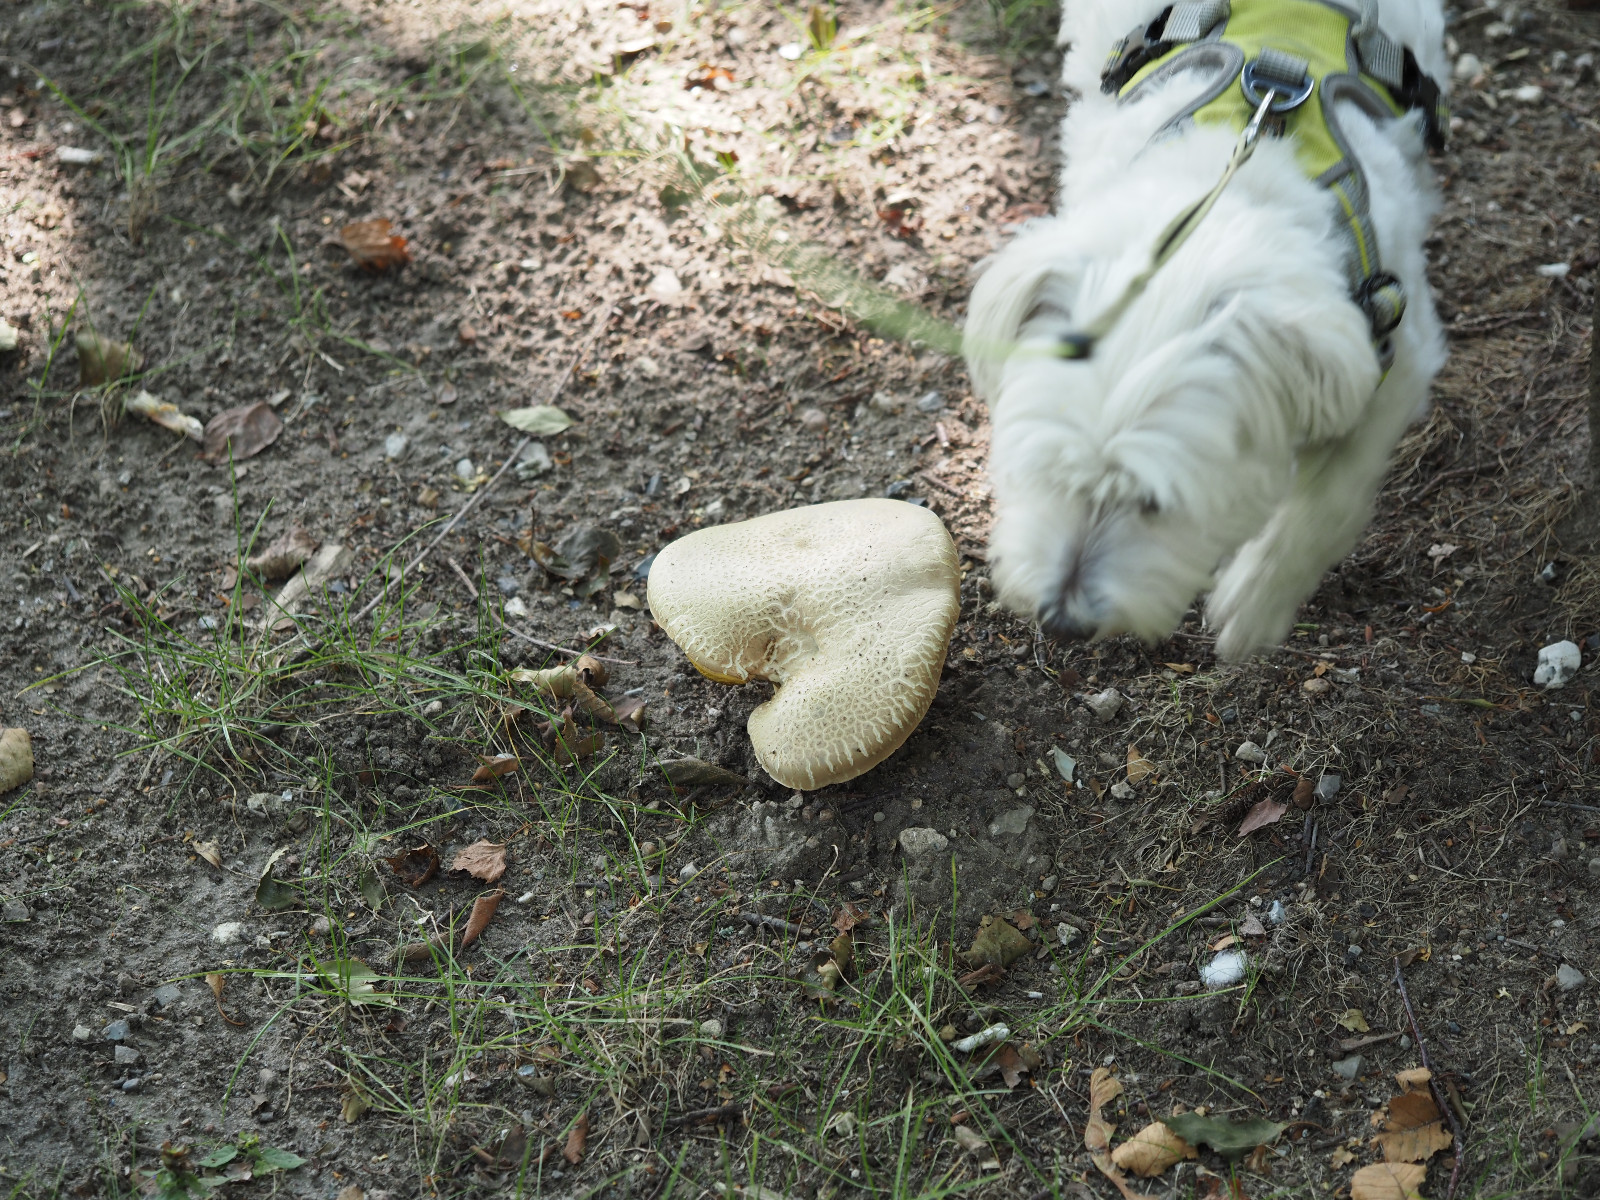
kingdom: Fungi
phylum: Basidiomycota
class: Agaricomycetes
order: Boletales
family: Boletaceae
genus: Caloboletus
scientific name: Caloboletus radicans
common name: rod-rørhat
